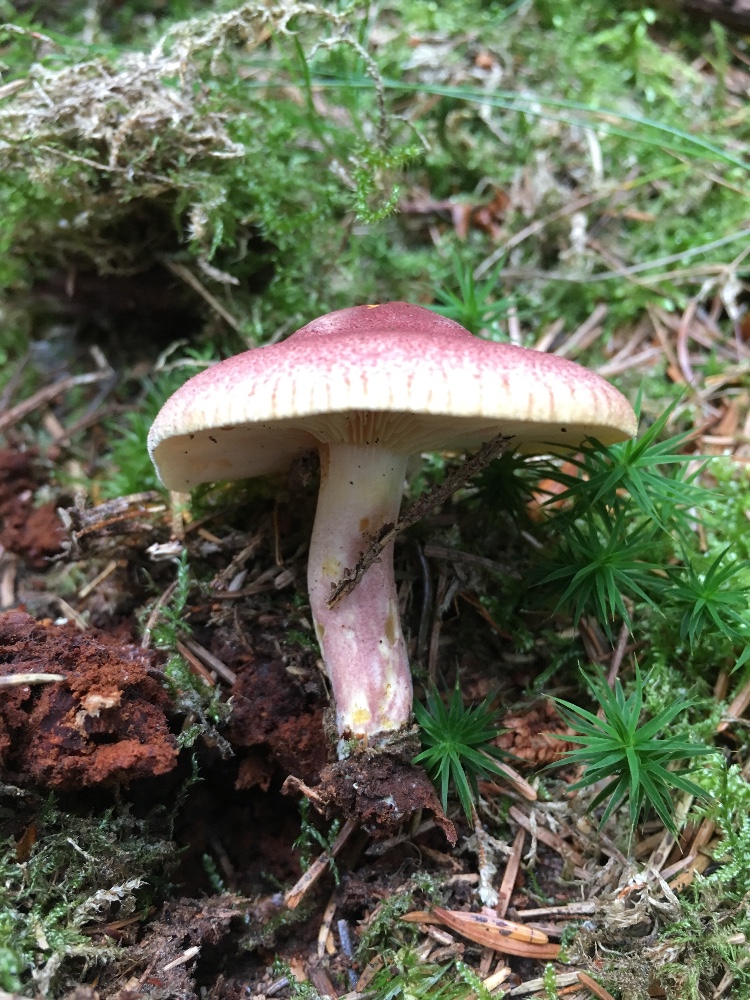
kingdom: Fungi
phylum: Basidiomycota
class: Agaricomycetes
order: Agaricales
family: Tricholomataceae
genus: Tricholomopsis
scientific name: Tricholomopsis rutilans
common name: purpur-væbnerhat
